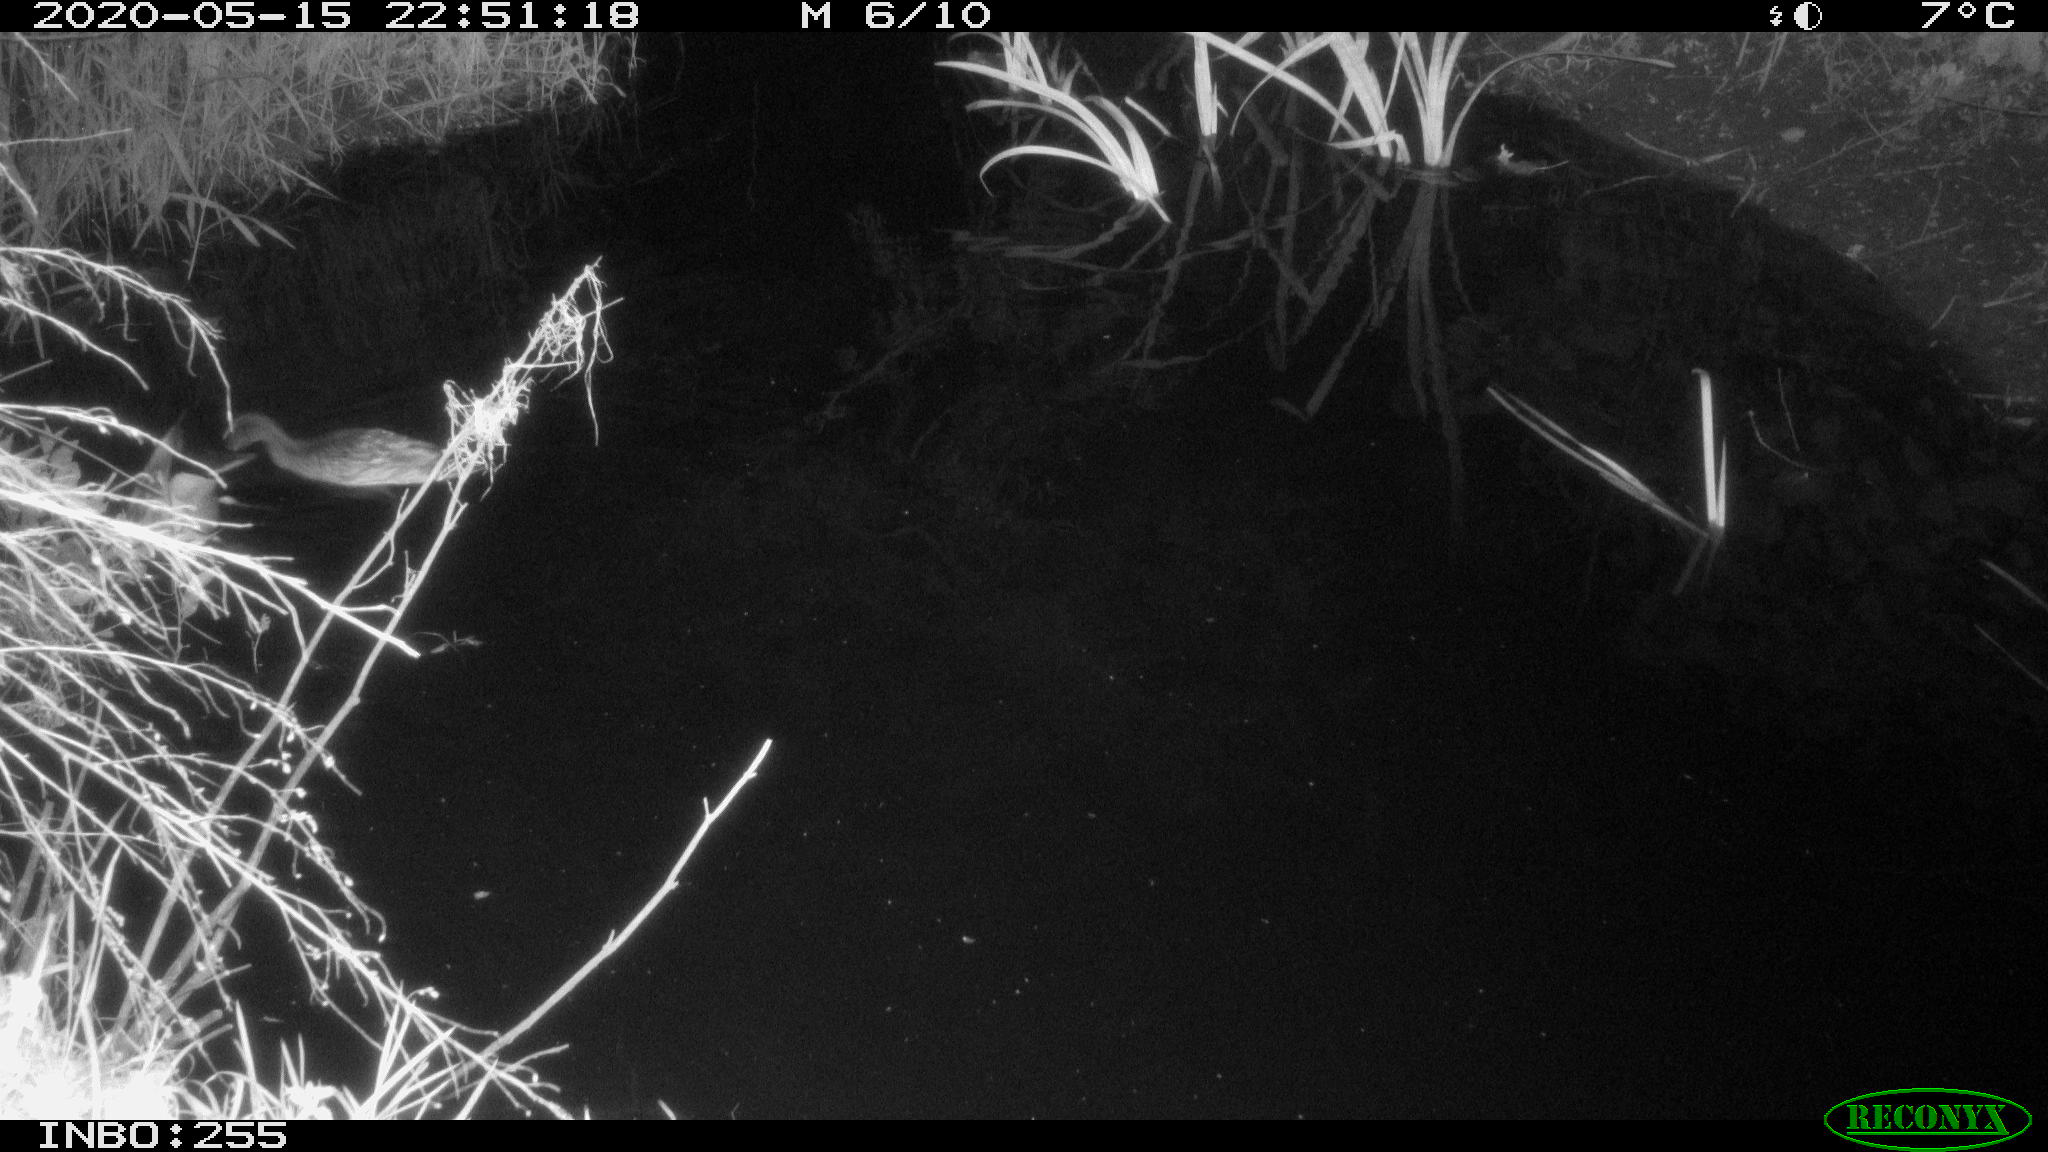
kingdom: Animalia
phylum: Chordata
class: Aves
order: Anseriformes
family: Anatidae
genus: Anas
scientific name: Anas platyrhynchos
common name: Mallard
